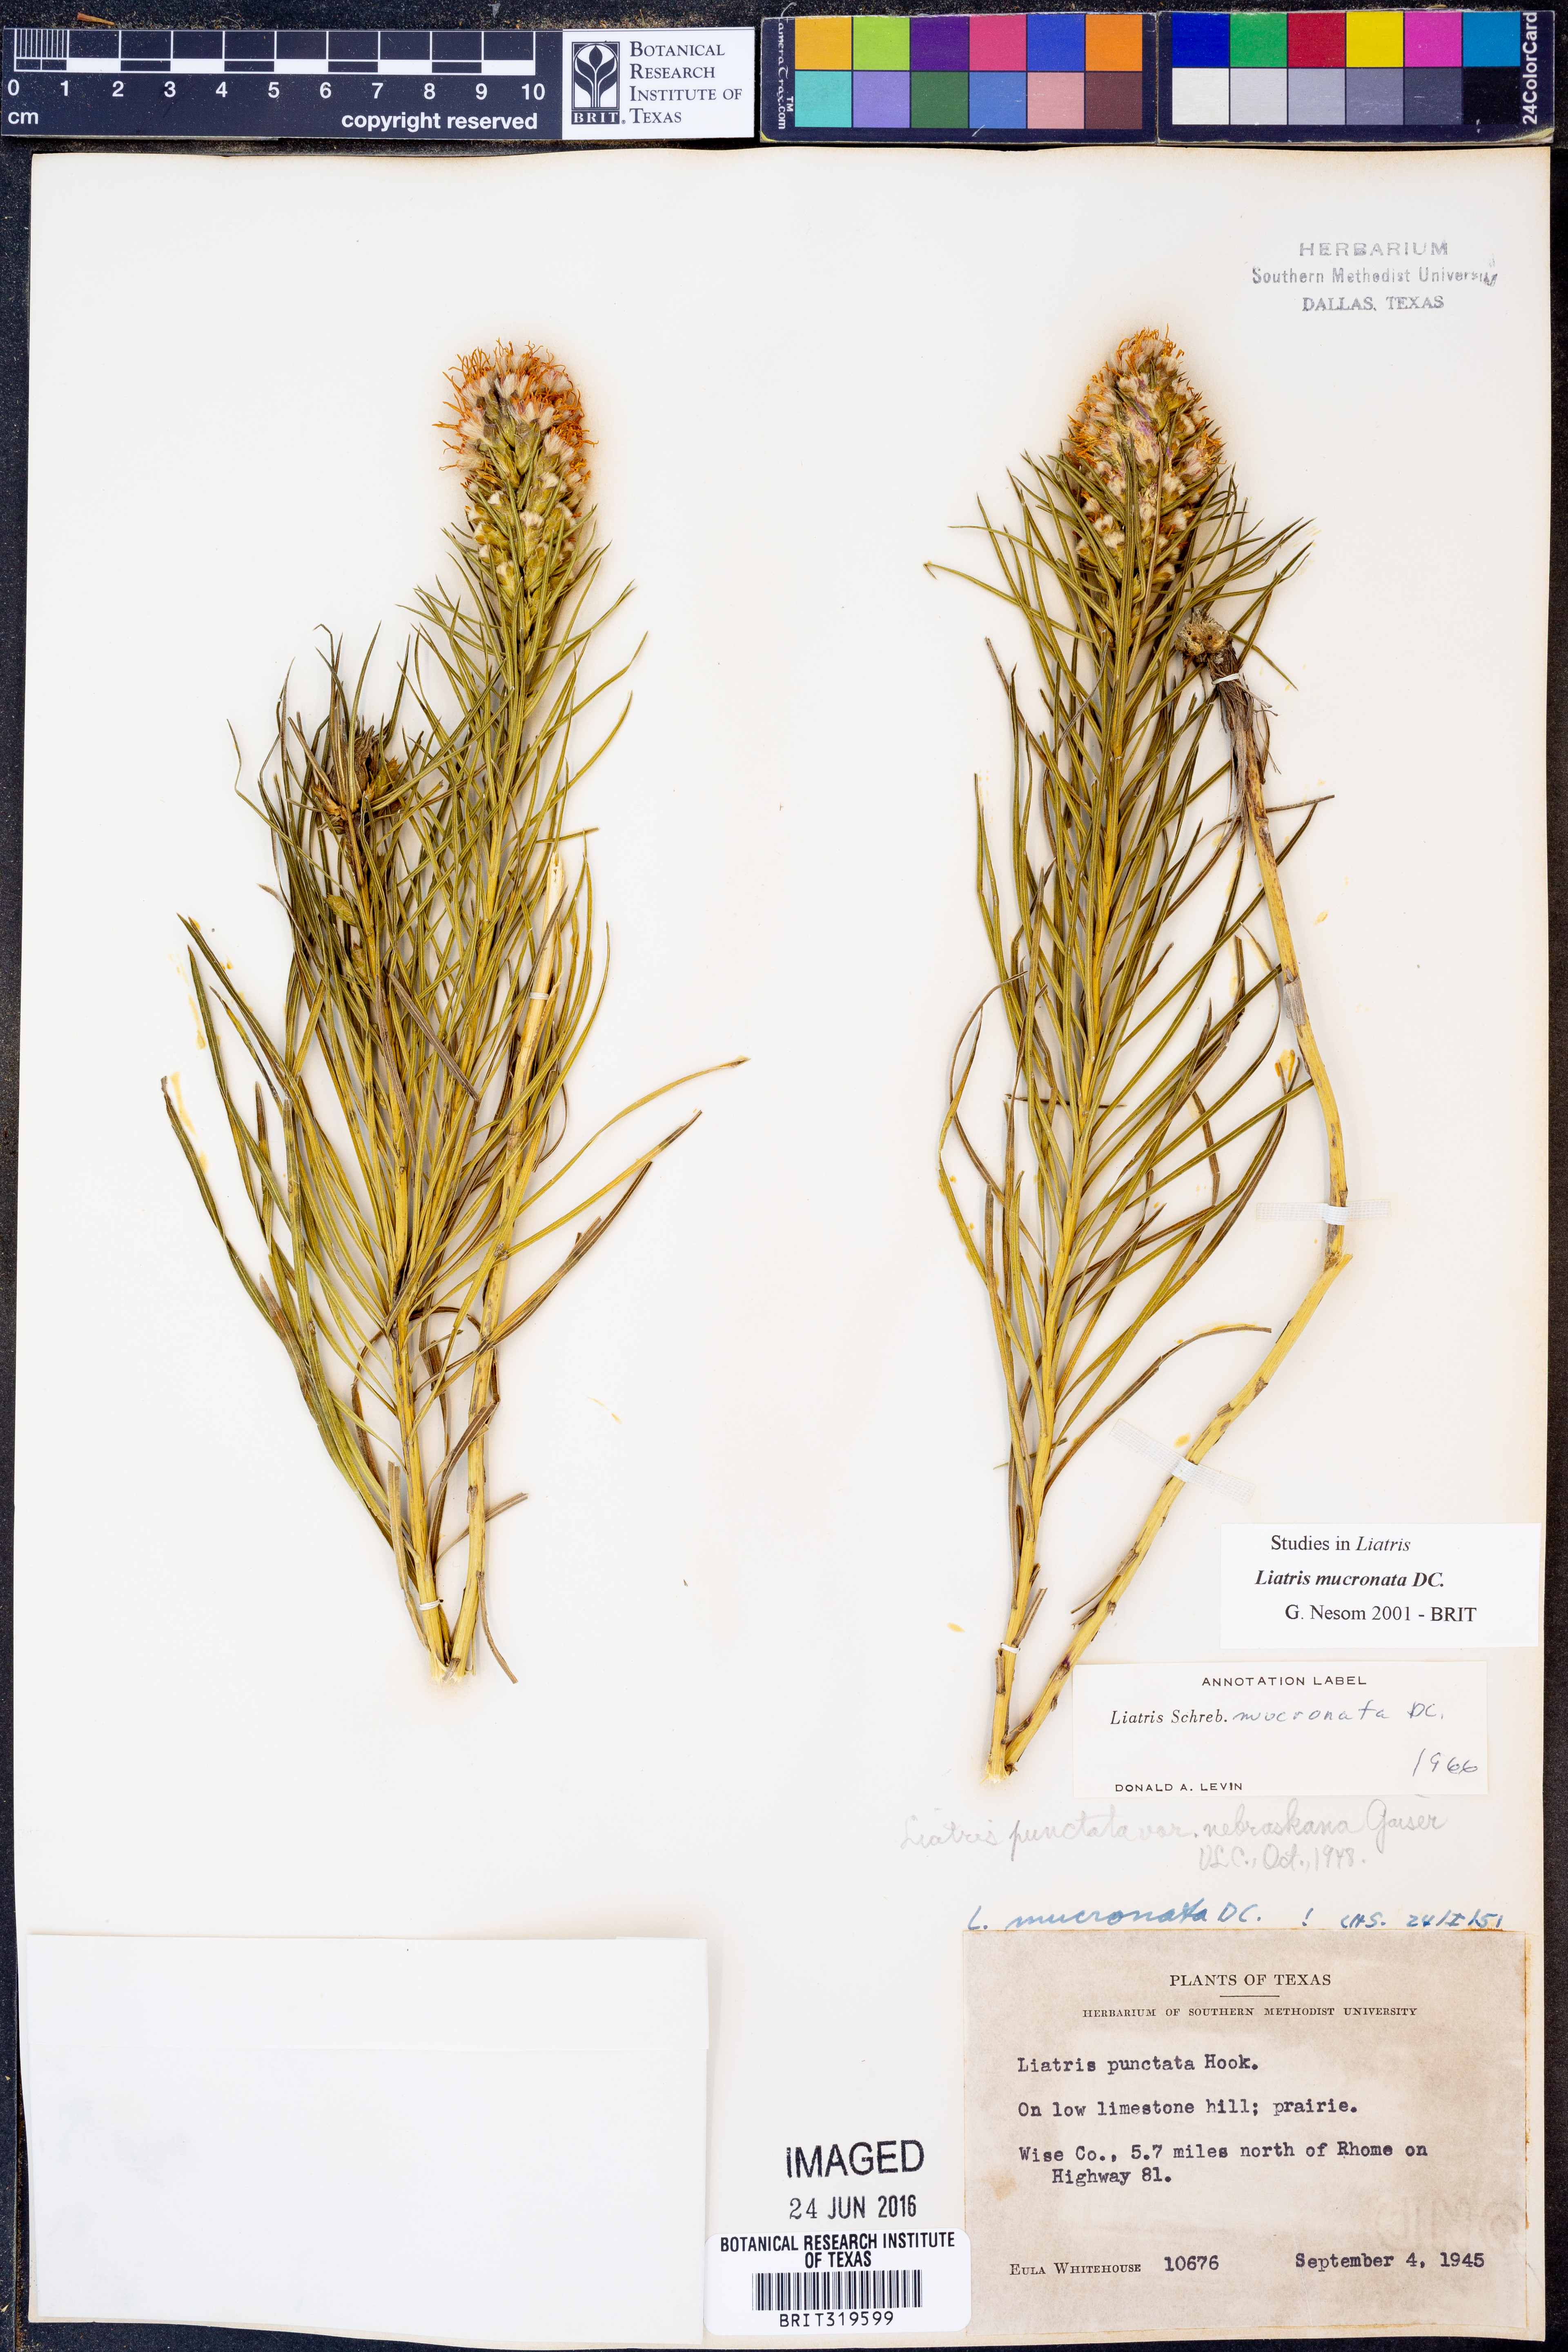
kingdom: Plantae
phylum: Tracheophyta
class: Magnoliopsida
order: Asterales
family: Asteraceae
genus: Liatris
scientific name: Liatris mucronata
